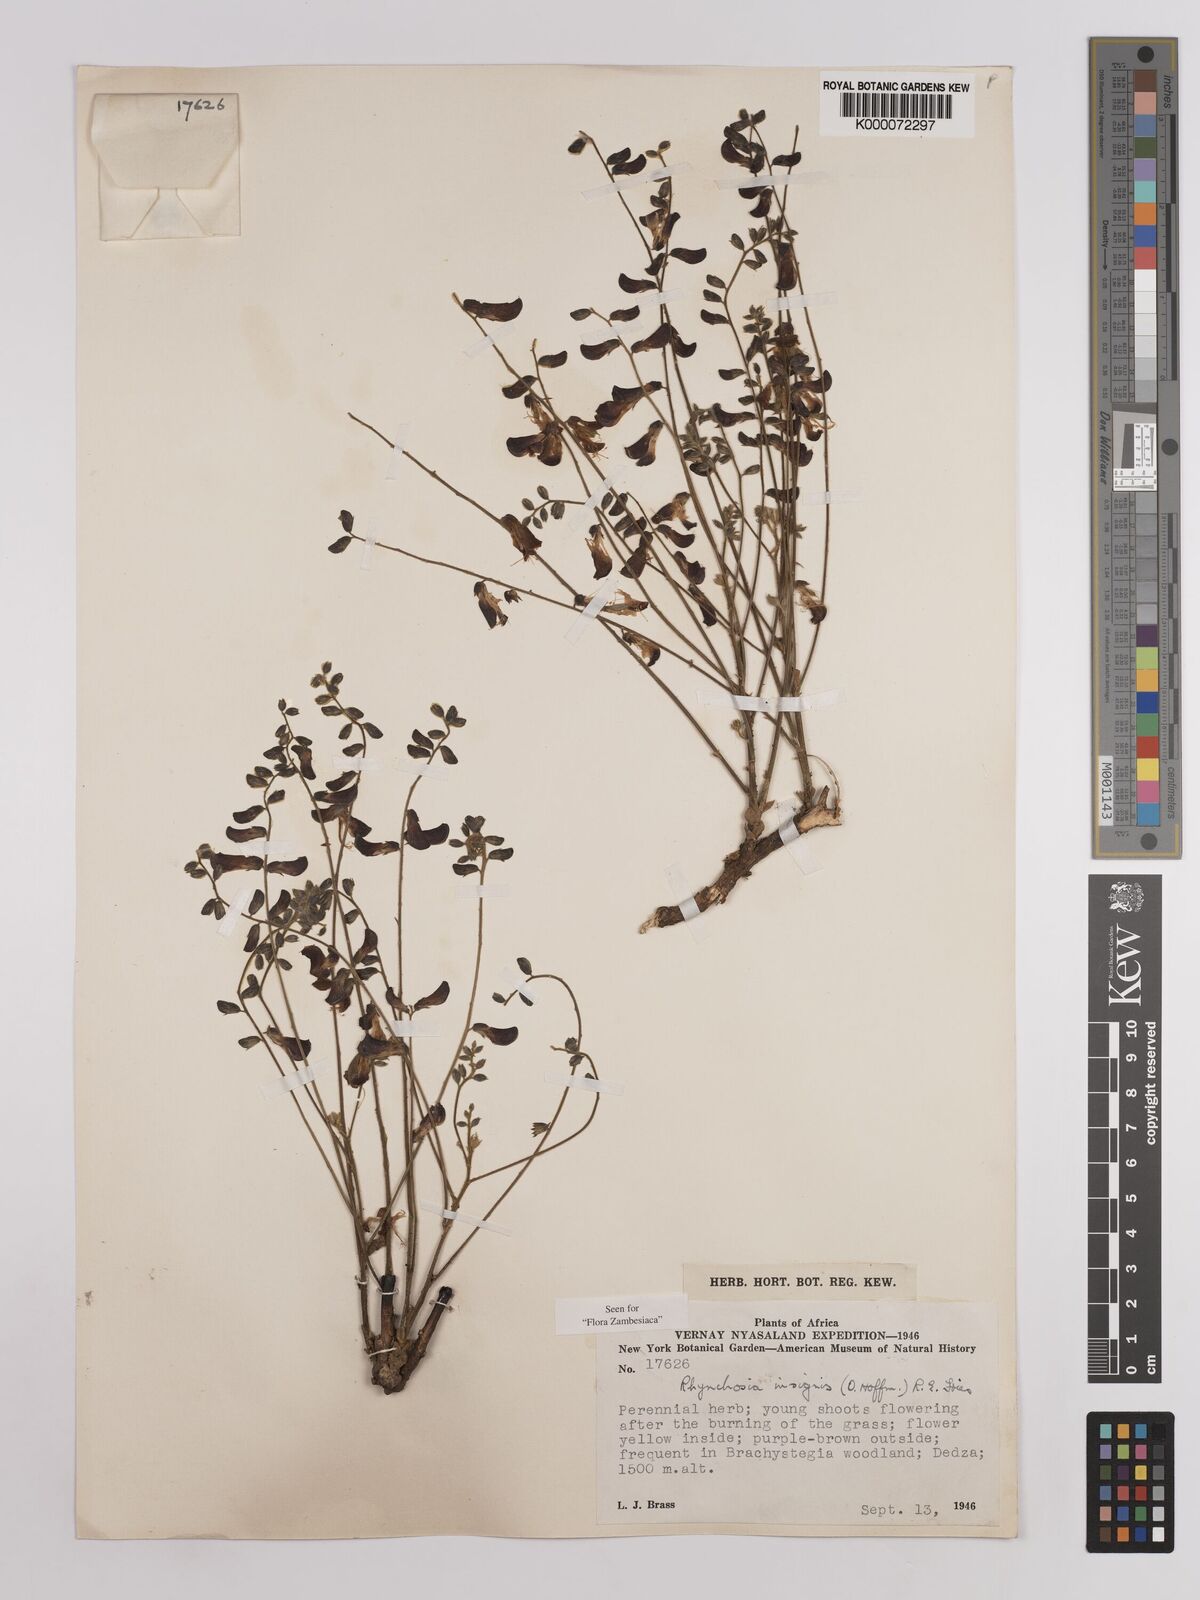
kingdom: Plantae
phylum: Tracheophyta
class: Magnoliopsida
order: Fabales
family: Fabaceae
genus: Rhynchosia
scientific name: Rhynchosia insignis
